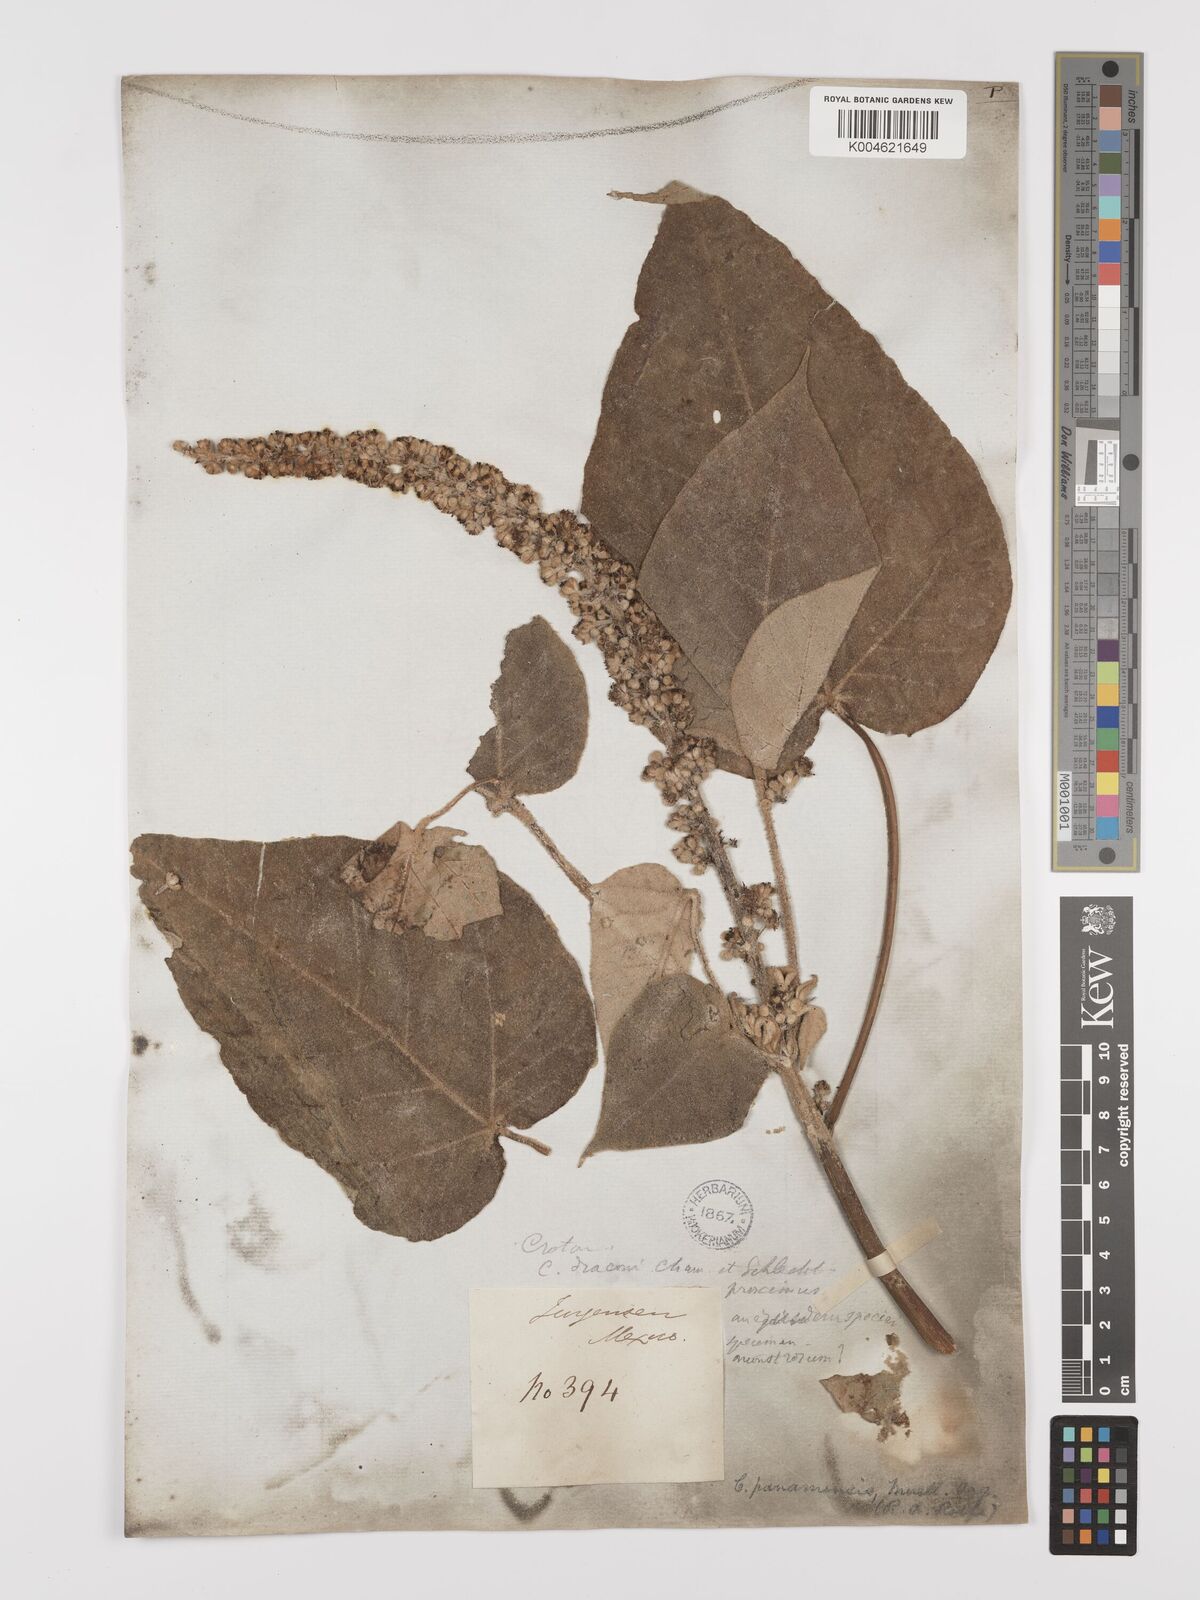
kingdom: Plantae
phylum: Tracheophyta
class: Magnoliopsida
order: Malpighiales
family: Euphorbiaceae
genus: Croton
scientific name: Croton draco
